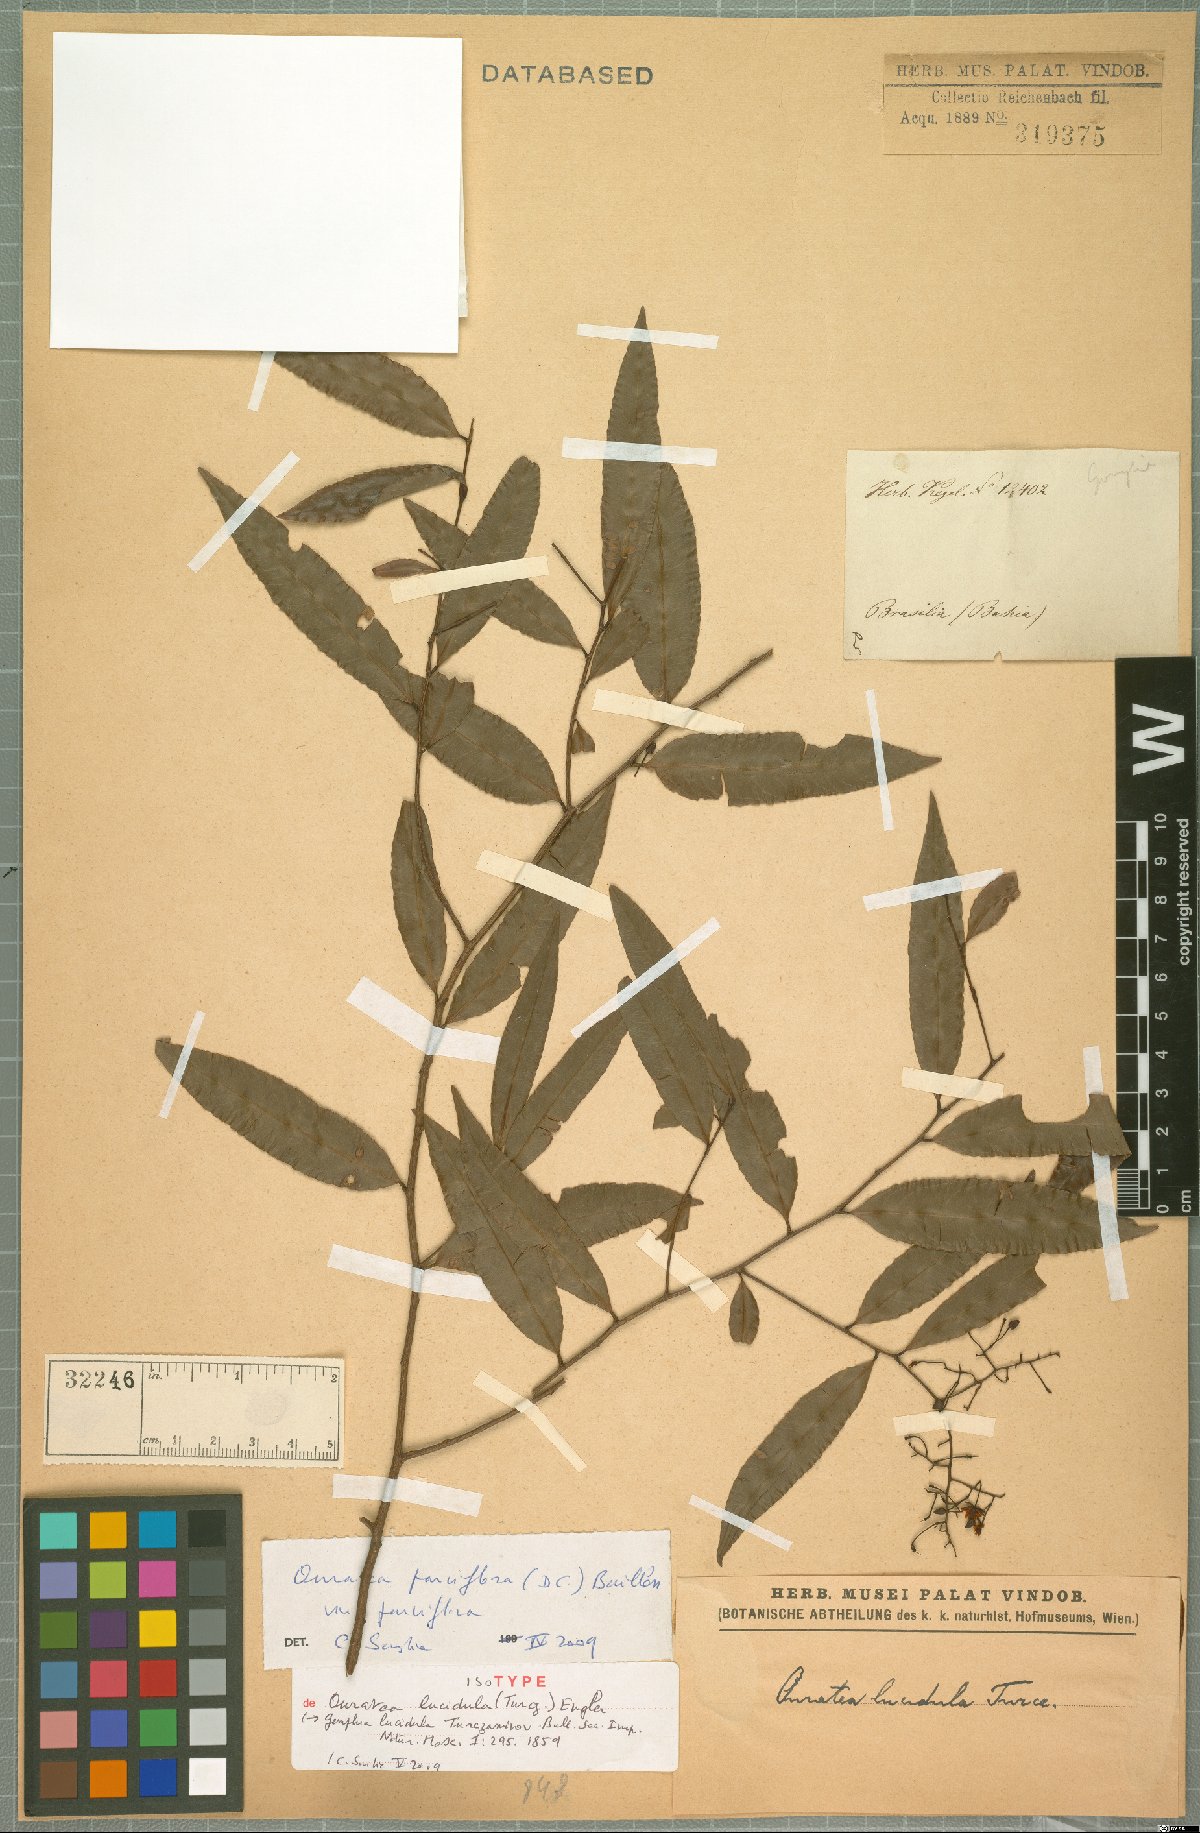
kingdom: Plantae
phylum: Tracheophyta
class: Magnoliopsida
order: Malpighiales
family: Ochnaceae
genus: Ouratea
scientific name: Ouratea parviflora
